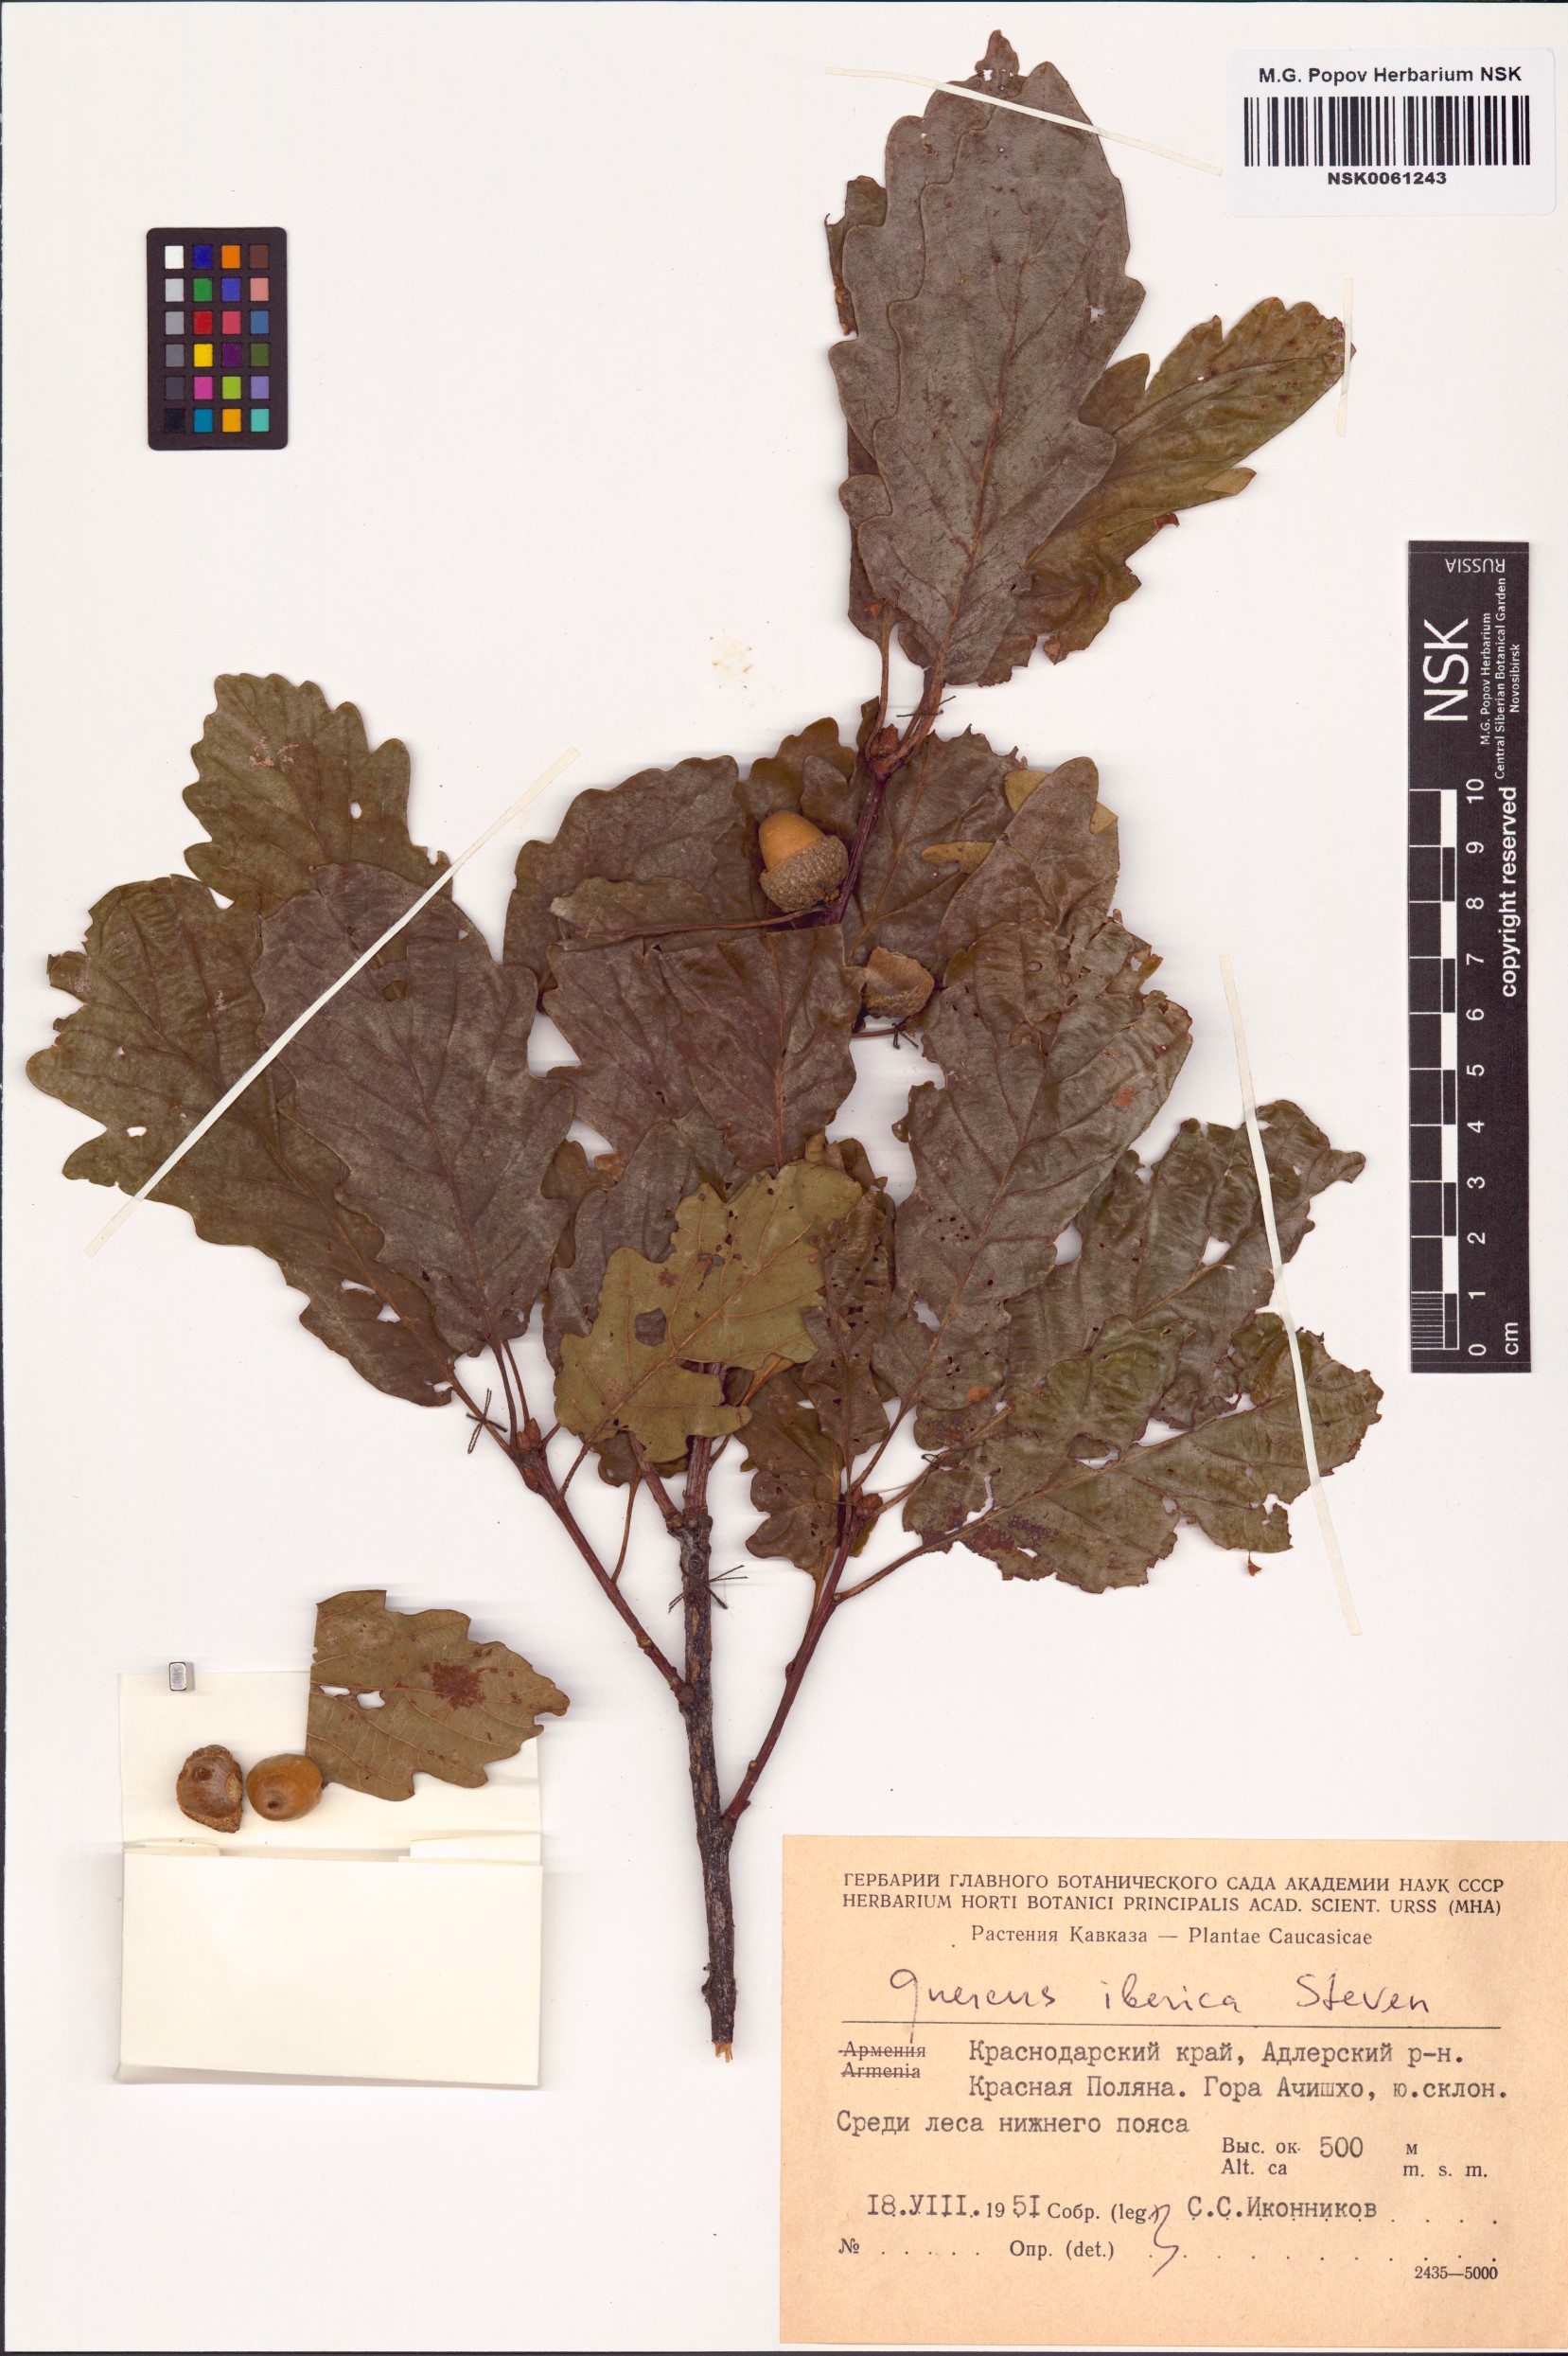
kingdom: Plantae
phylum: Tracheophyta
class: Magnoliopsida
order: Fagales
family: Fagaceae
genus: Quercus
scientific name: Quercus petraea
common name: Sessile oak
